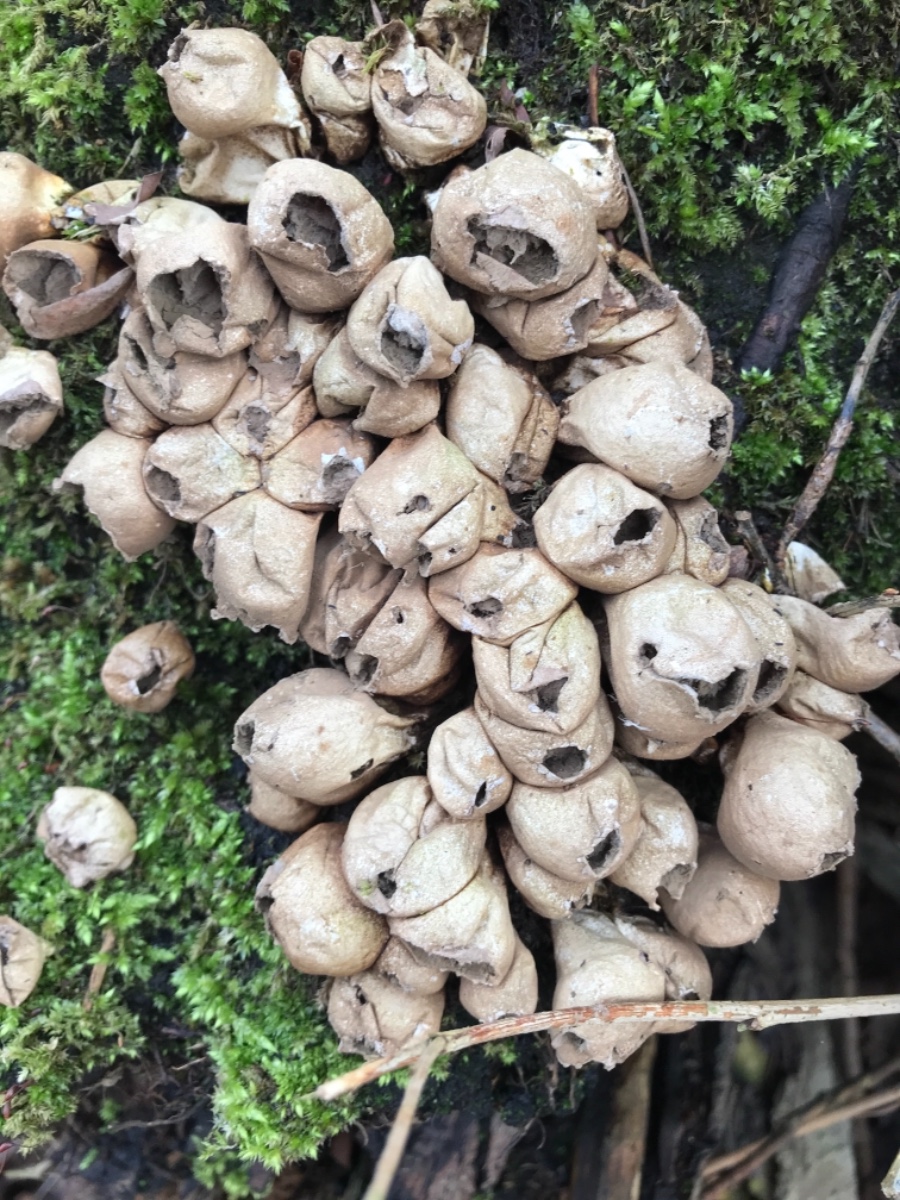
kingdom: Fungi
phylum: Basidiomycota
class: Agaricomycetes
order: Agaricales
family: Lycoperdaceae
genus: Apioperdon
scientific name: Apioperdon pyriforme
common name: pære-støvbold
